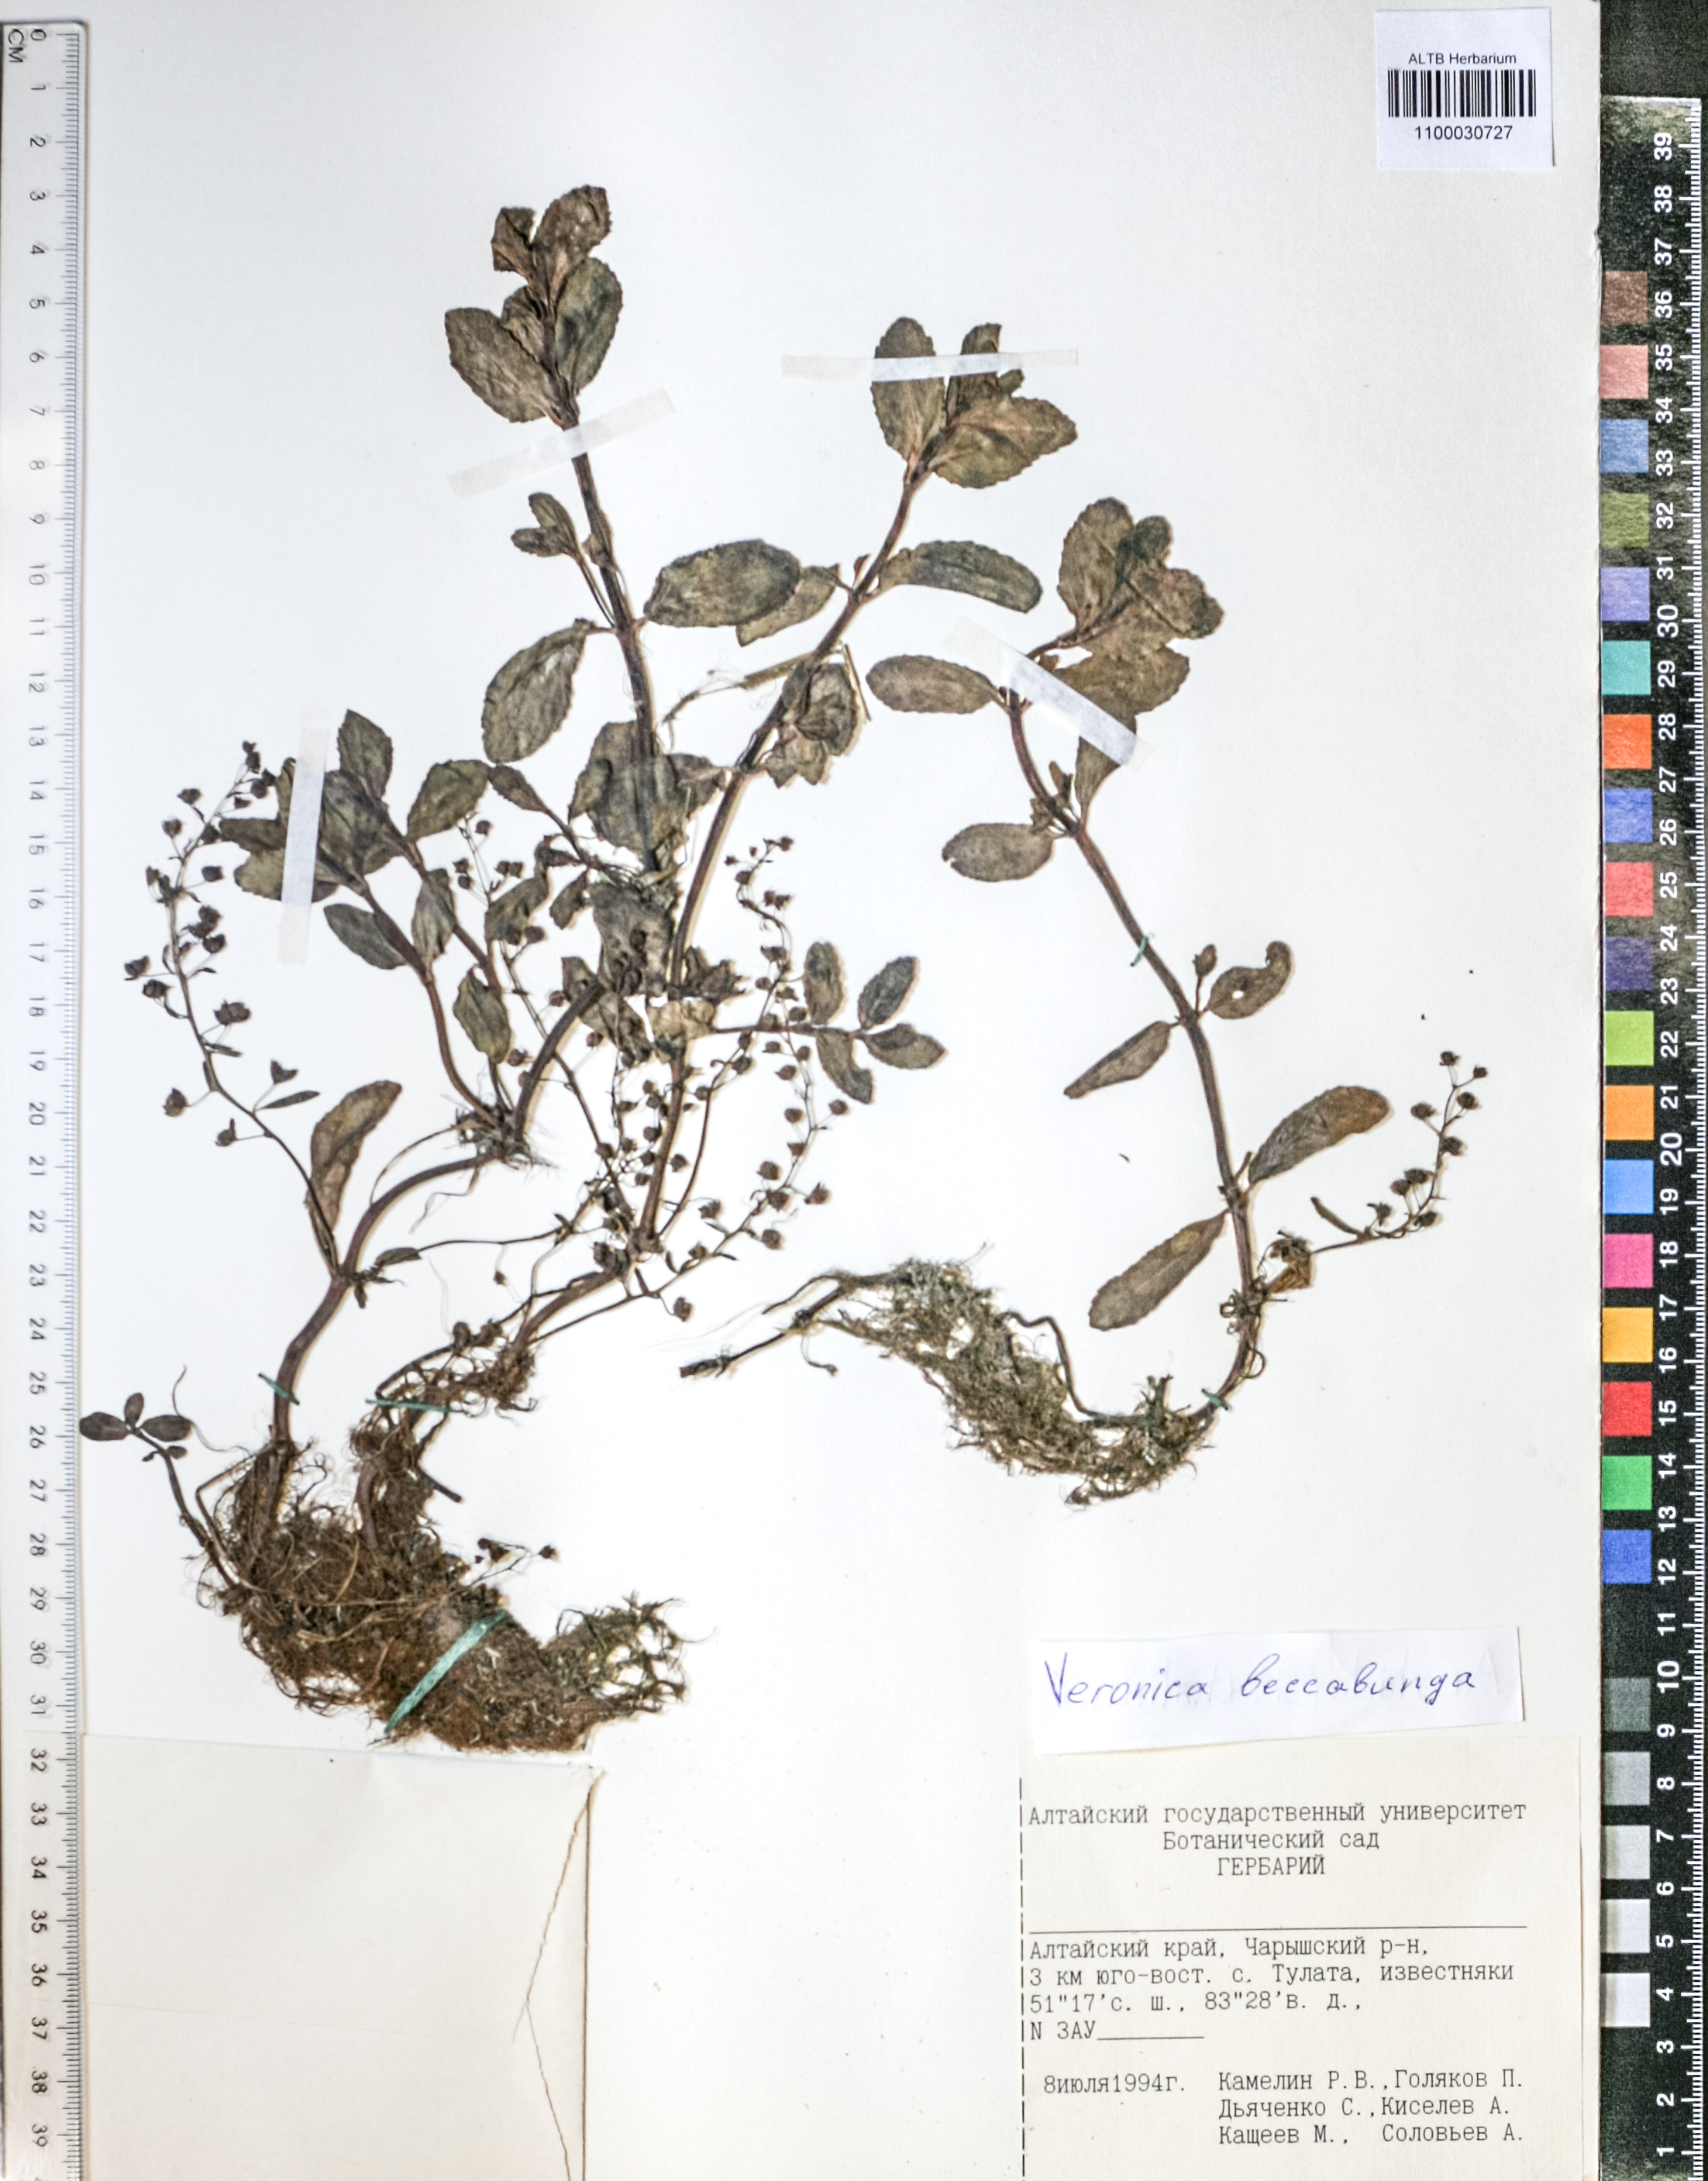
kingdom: Plantae
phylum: Tracheophyta
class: Magnoliopsida
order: Lamiales
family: Plantaginaceae
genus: Veronica
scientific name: Veronica beccabunga
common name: Brooklime
